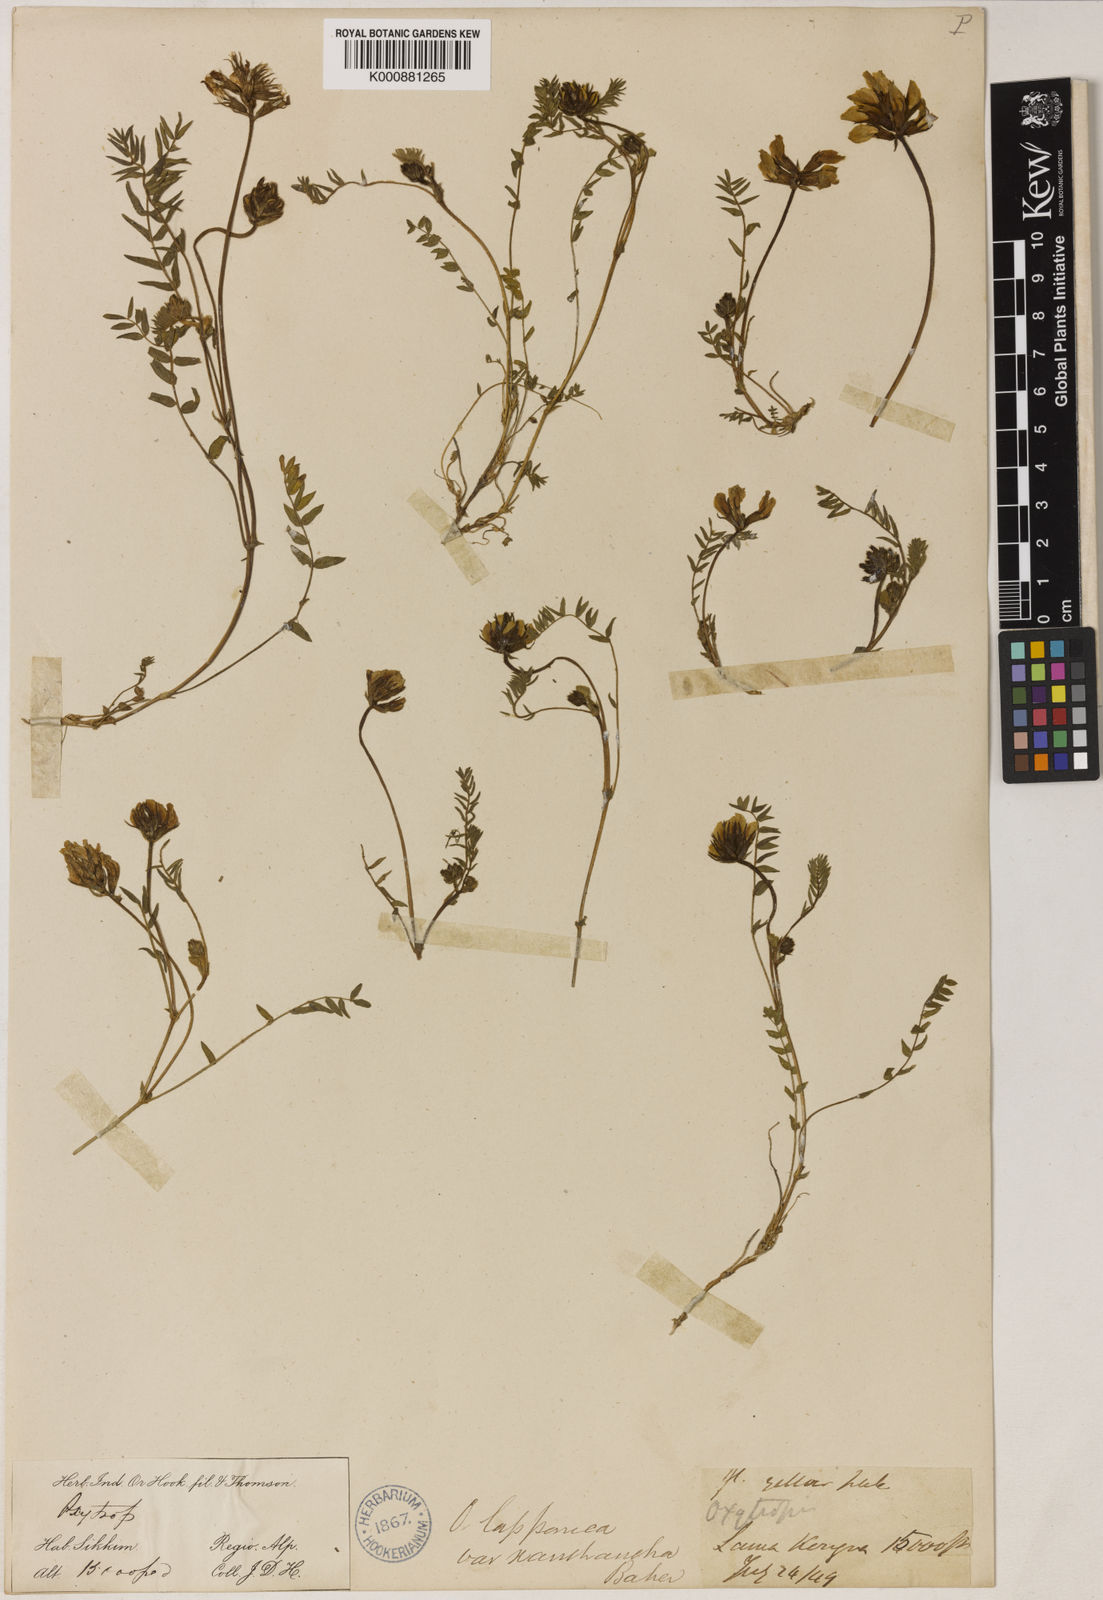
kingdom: Plantae
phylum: Tracheophyta
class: Magnoliopsida
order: Fabales
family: Fabaceae
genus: Oxytropis
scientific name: Oxytropis lapponica
